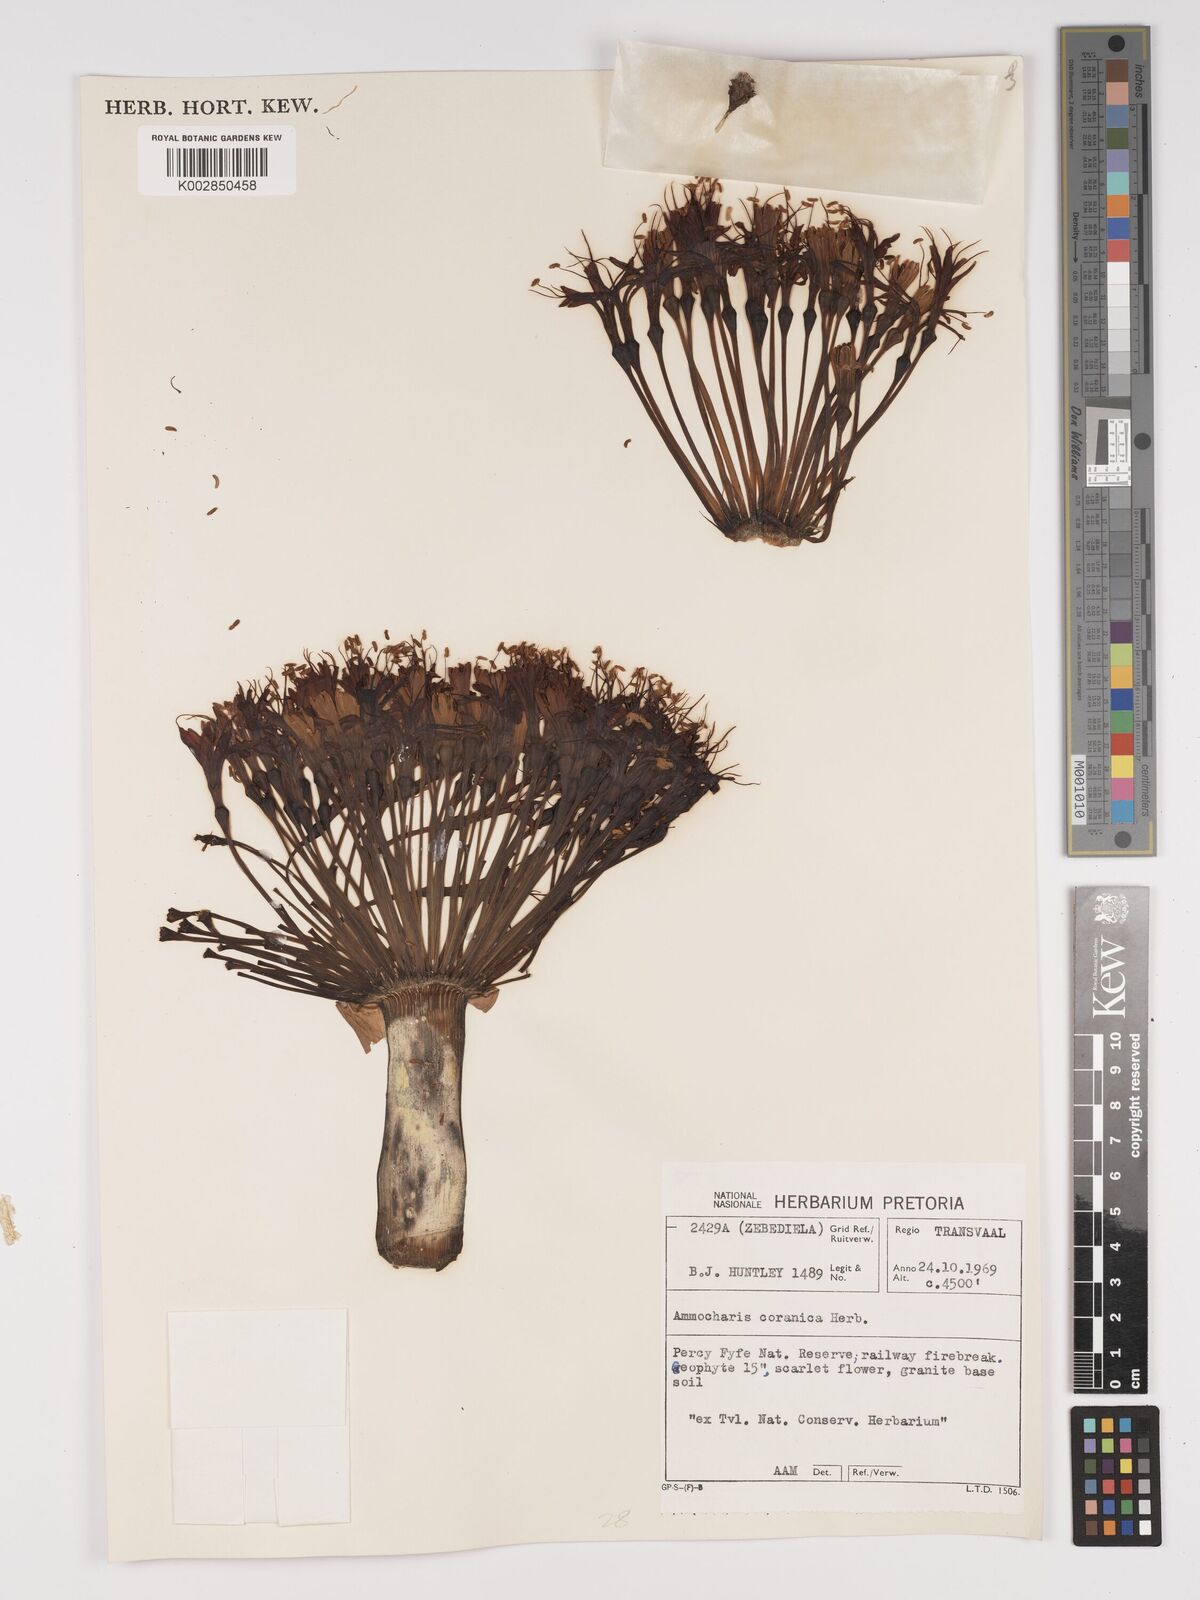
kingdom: Plantae
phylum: Tracheophyta
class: Liliopsida
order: Asparagales
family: Amaryllidaceae
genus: Ammocharis
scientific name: Ammocharis coranica
